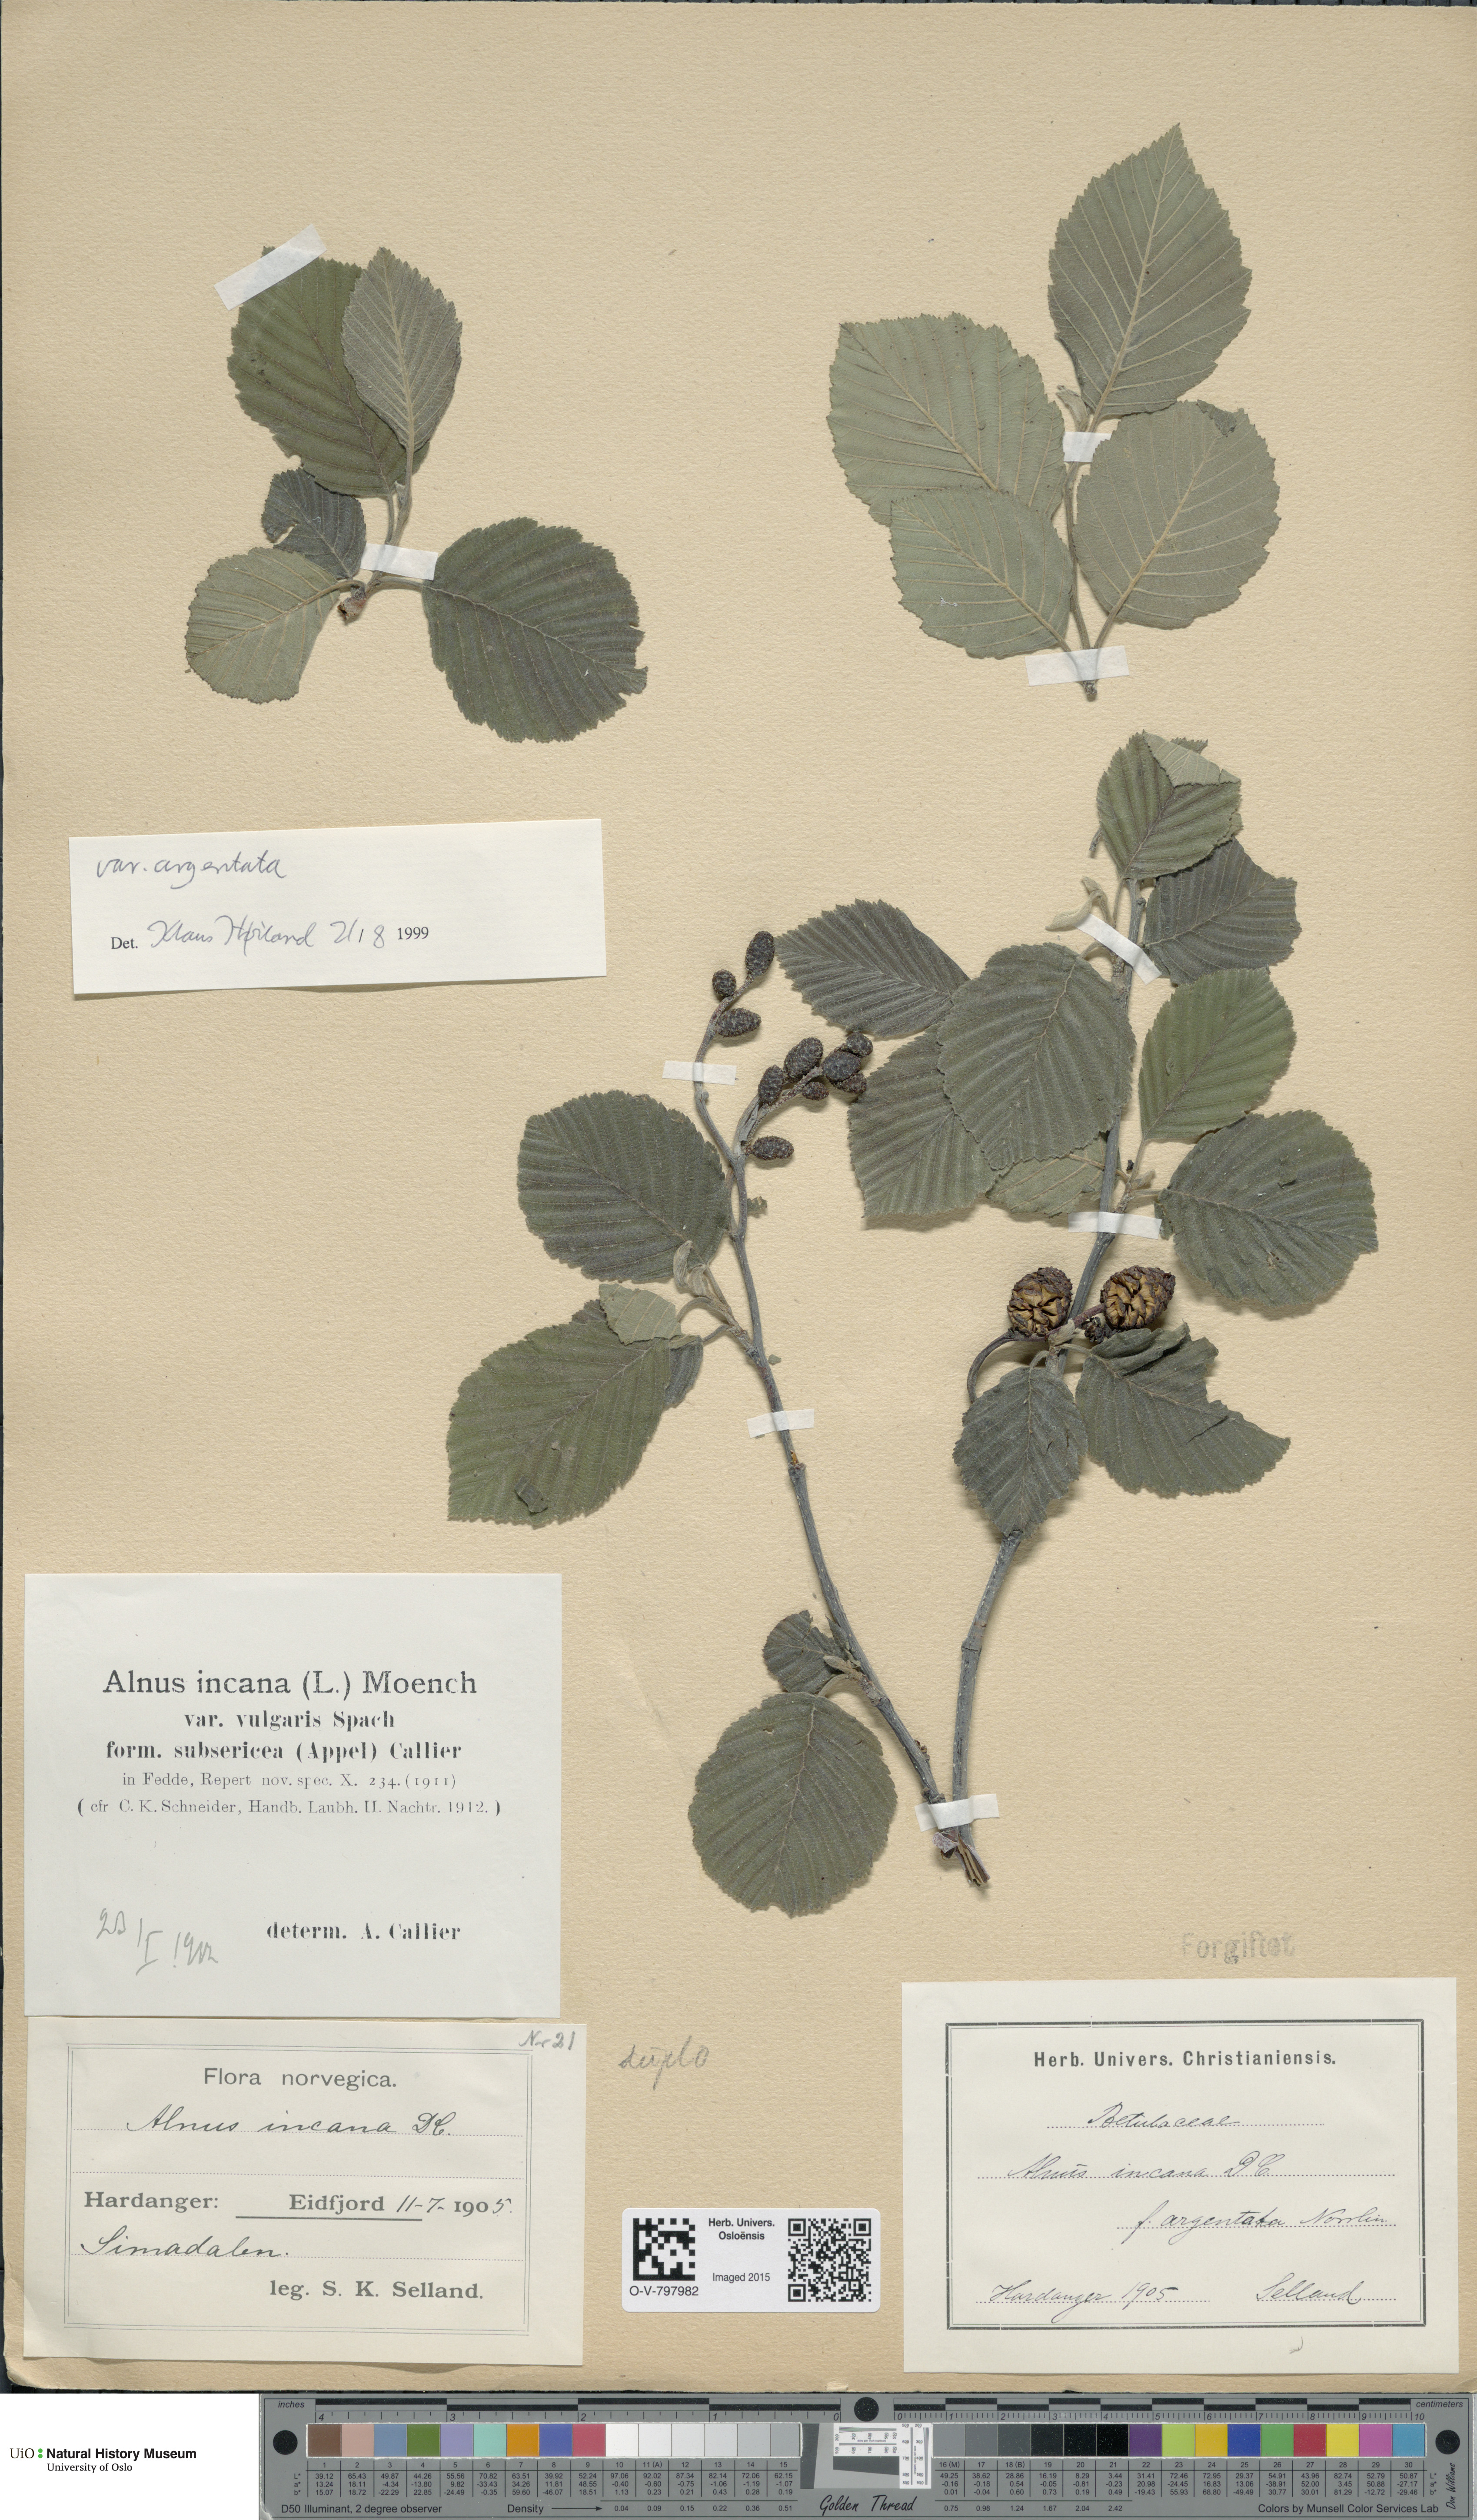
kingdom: Plantae
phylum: Tracheophyta
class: Magnoliopsida
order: Fagales
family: Betulaceae
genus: Alnus
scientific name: Alnus incana
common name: Grey alder
